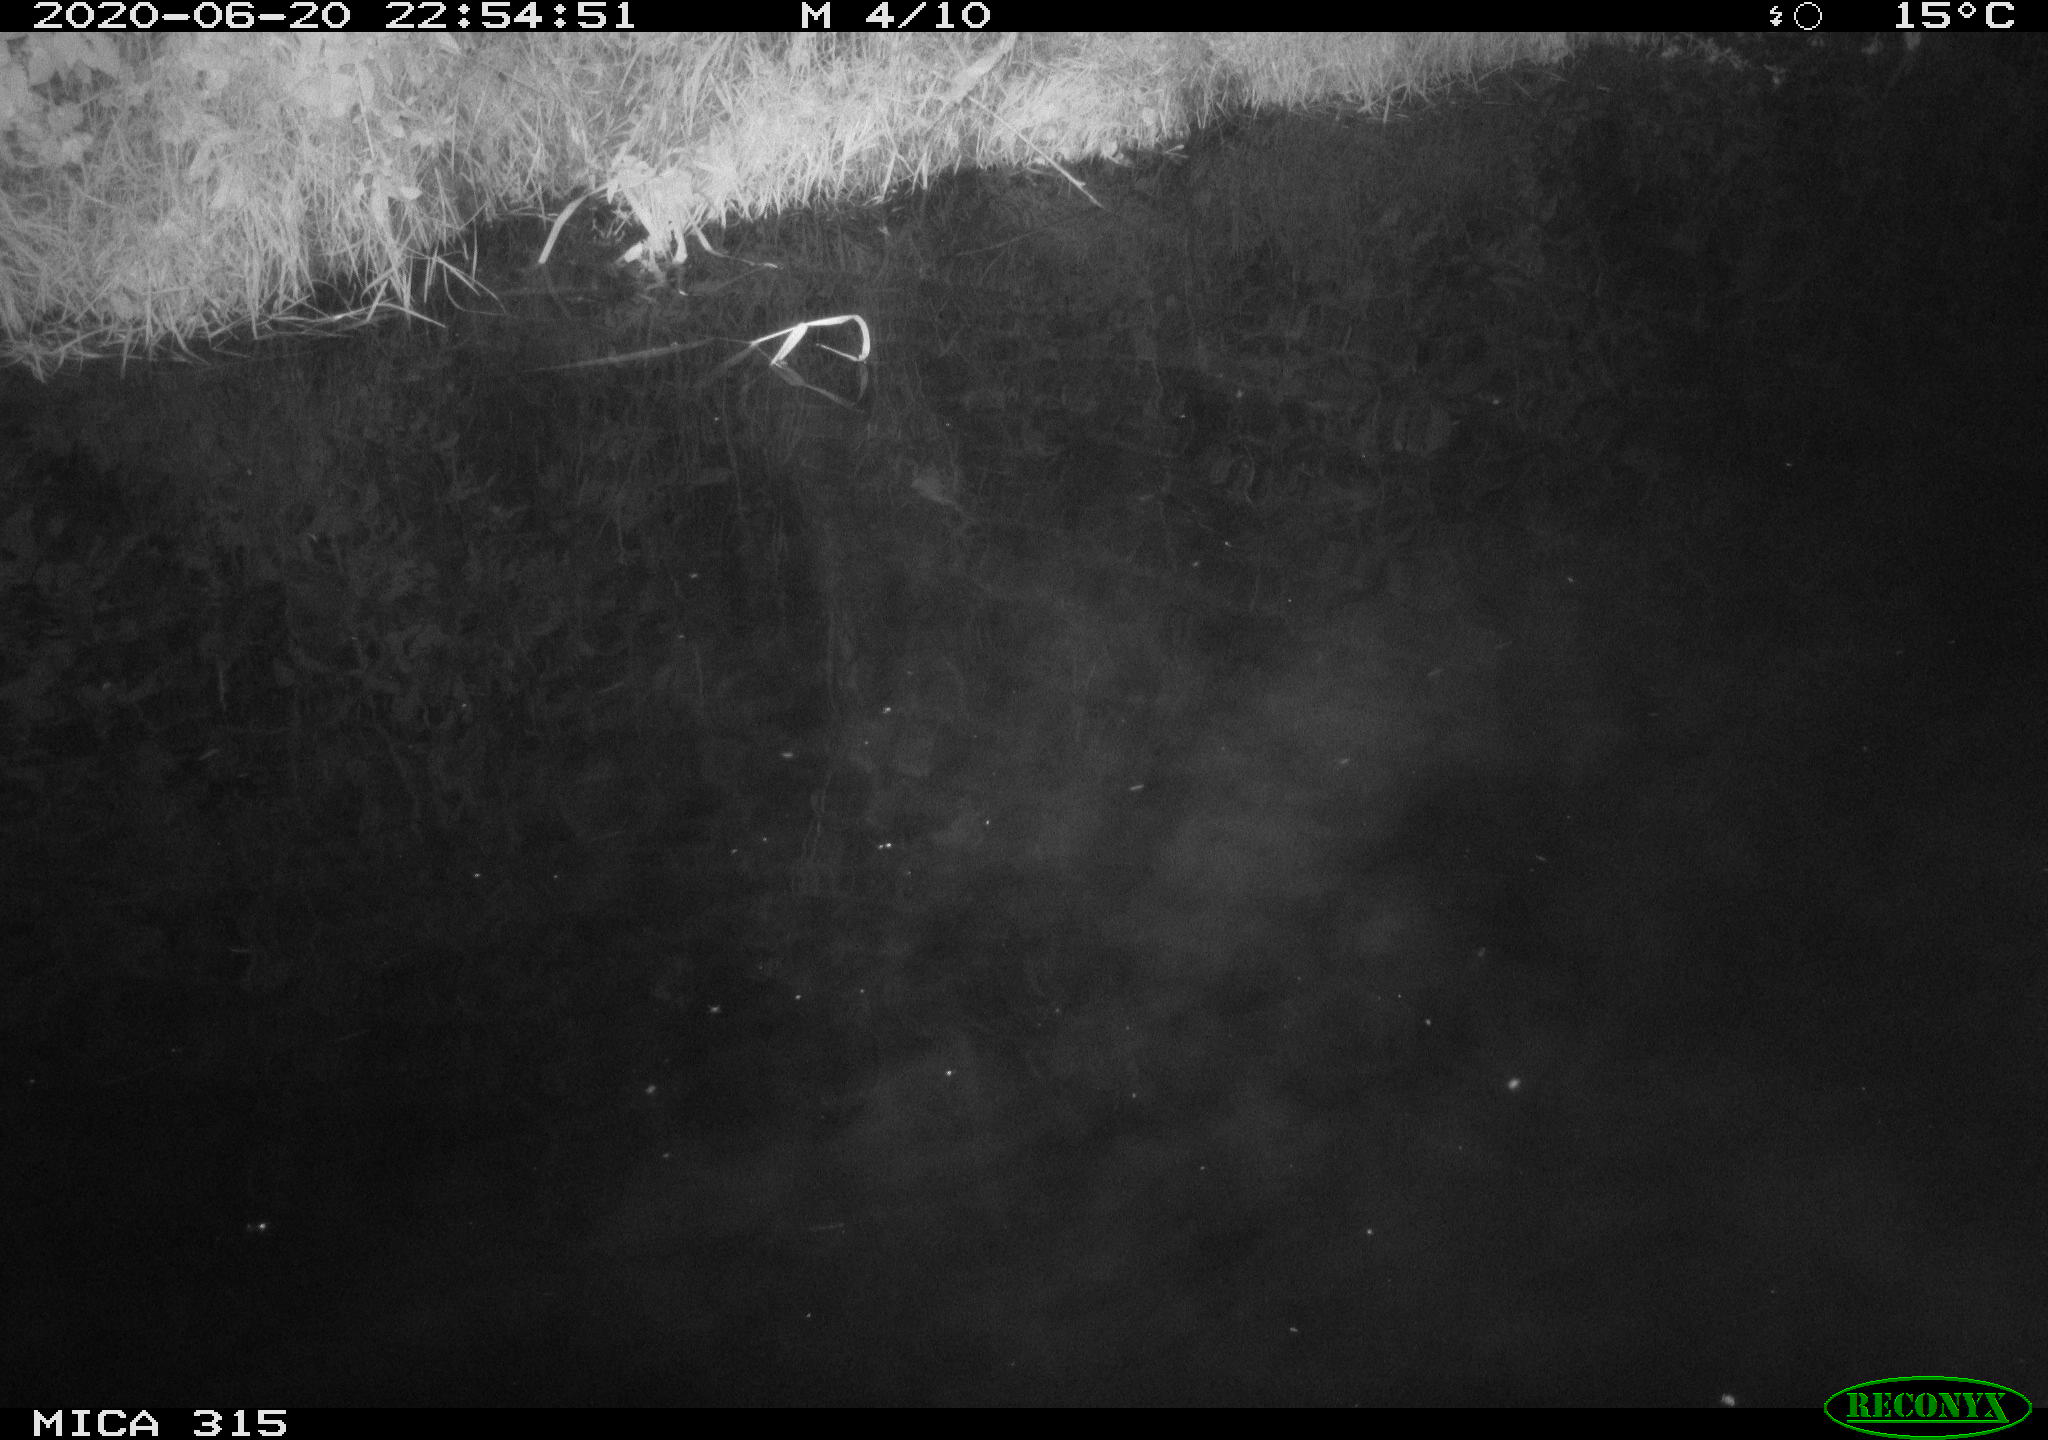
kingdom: Animalia
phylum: Chordata
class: Aves
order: Anseriformes
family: Anatidae
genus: Anas
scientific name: Anas platyrhynchos
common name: Mallard
